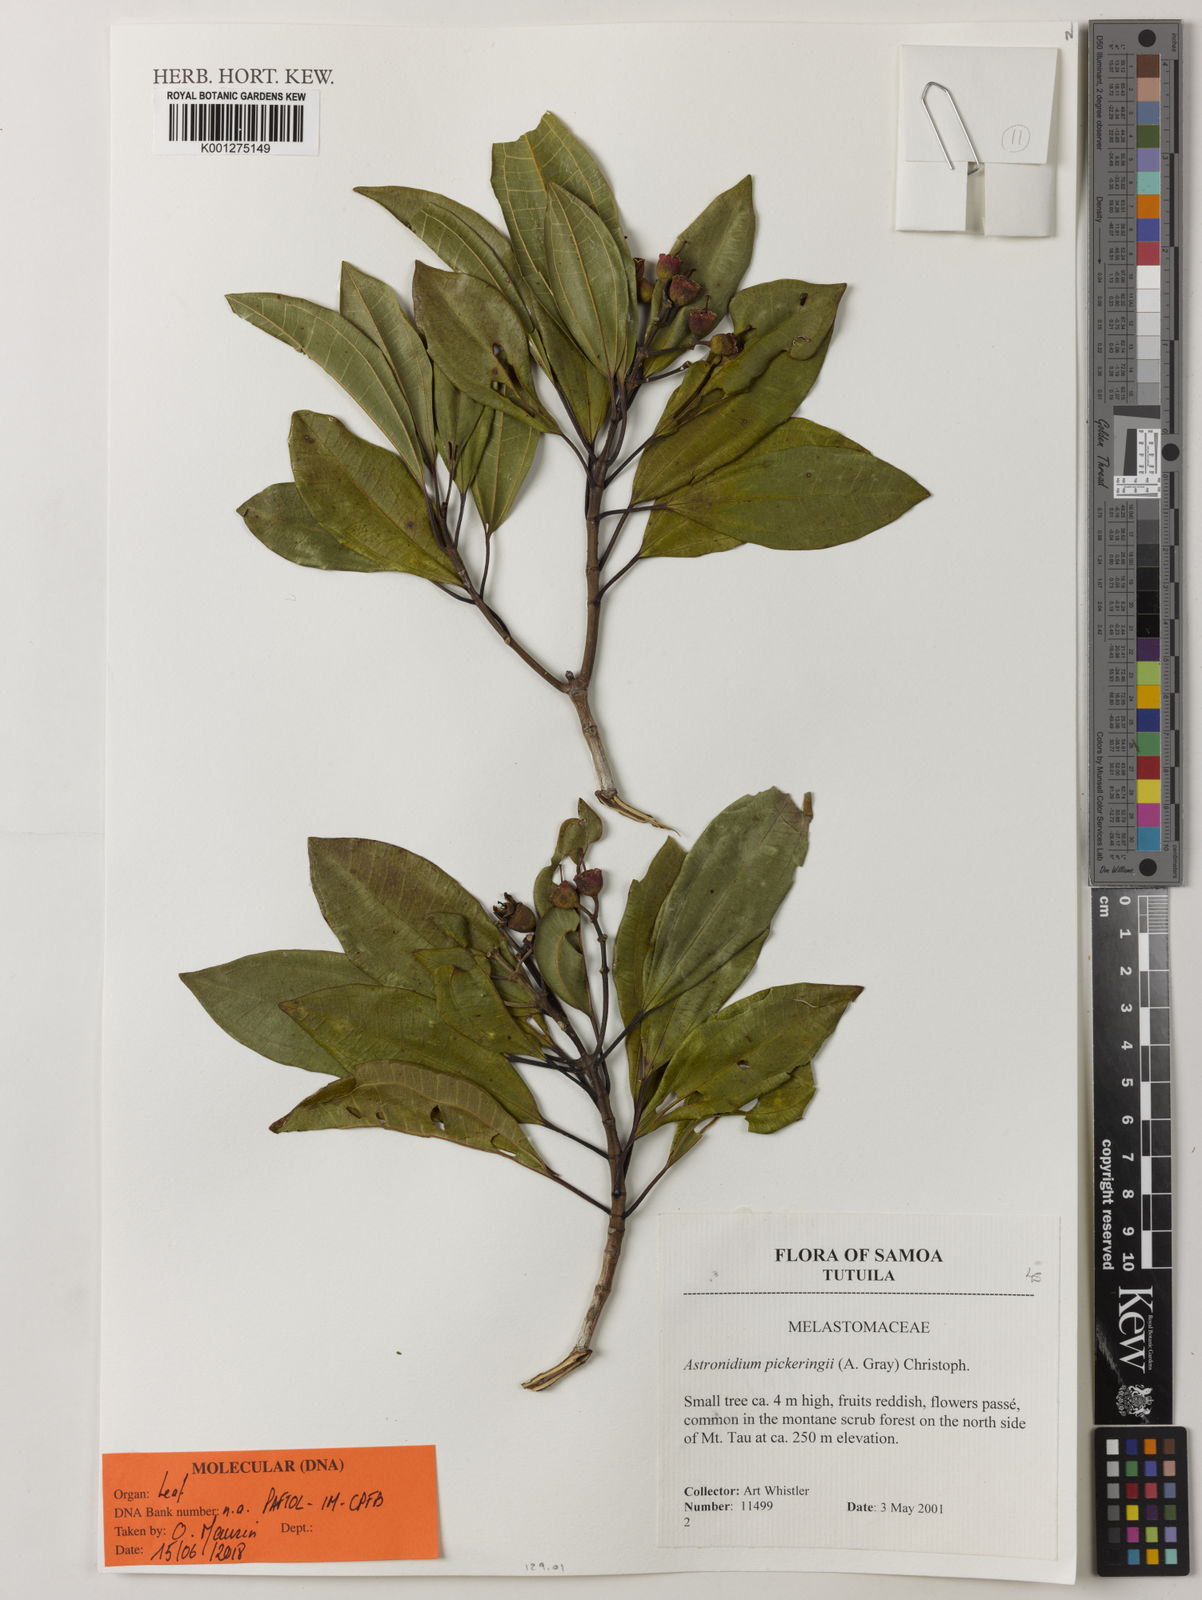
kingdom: Plantae
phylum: Tracheophyta
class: Magnoliopsida
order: Myrtales
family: Melastomataceae
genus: Astronidium
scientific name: Astronidium victoriae
